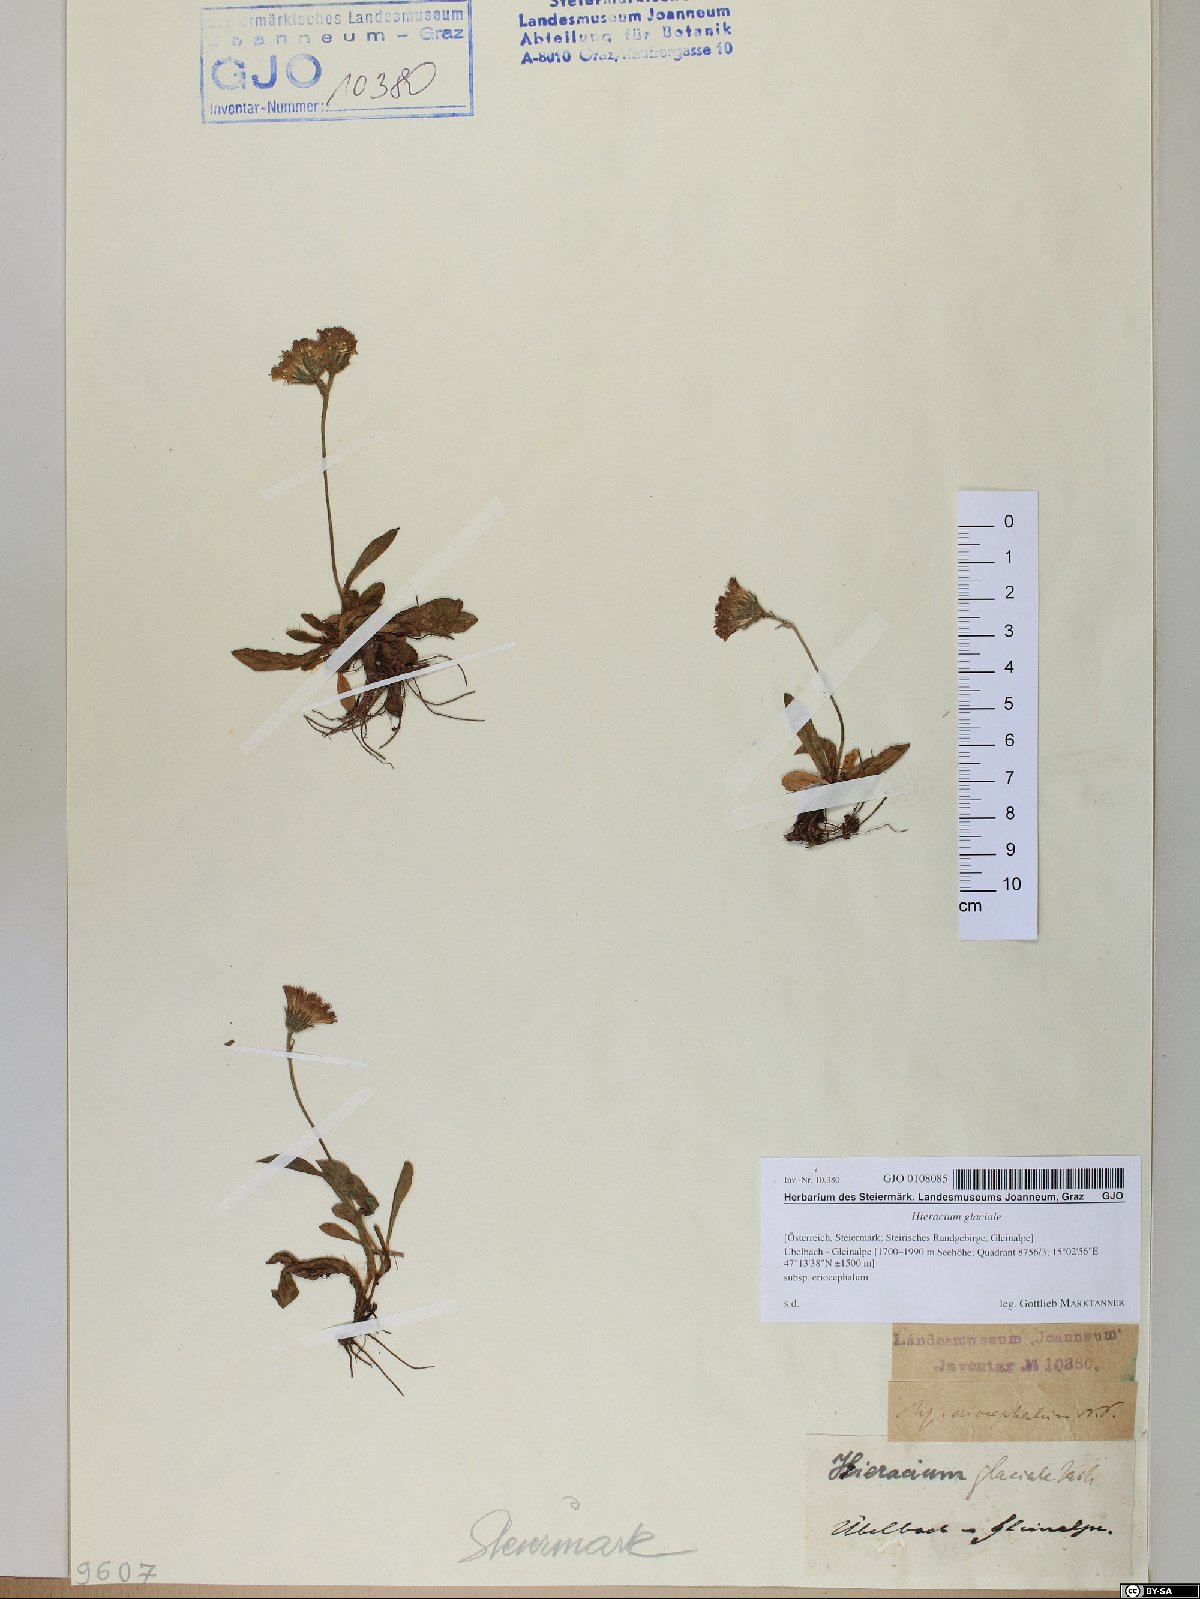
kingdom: Plantae
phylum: Tracheophyta
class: Magnoliopsida
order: Asterales
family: Asteraceae
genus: Pilosella
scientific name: Pilosella glacialis
